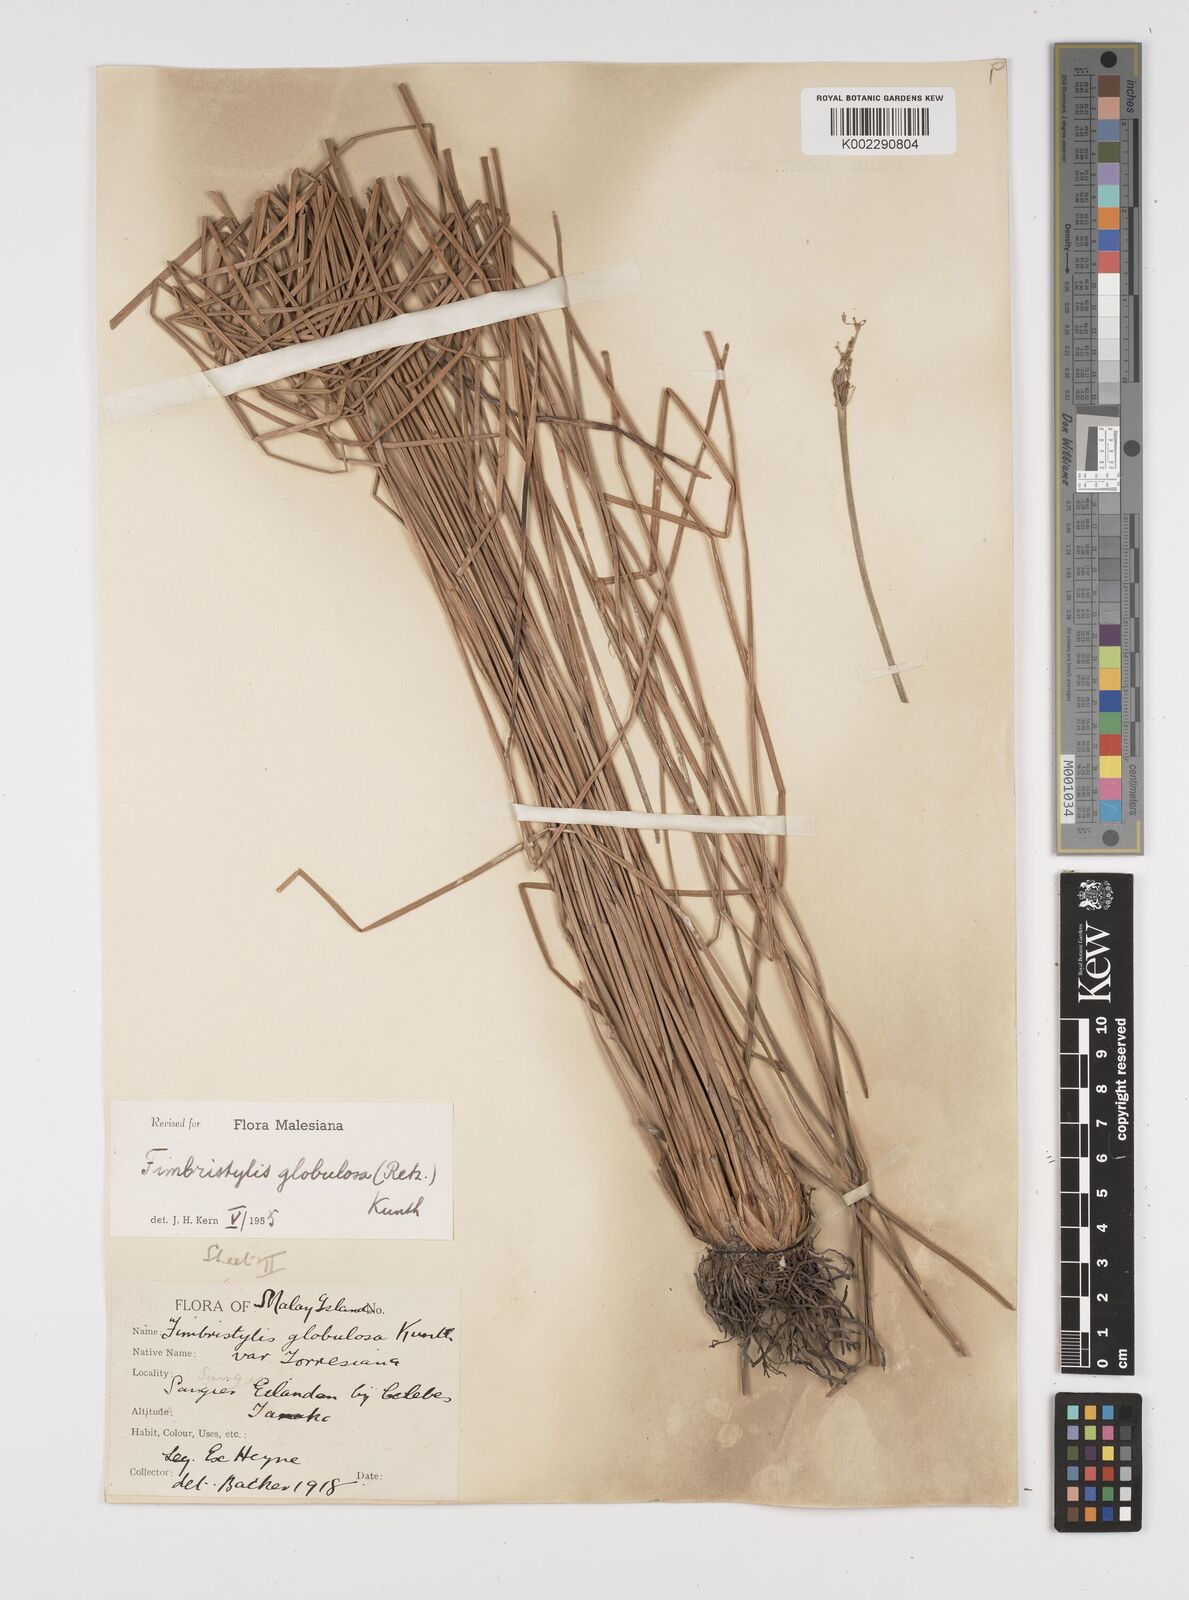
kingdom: Plantae
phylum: Tracheophyta
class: Liliopsida
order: Poales
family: Cyperaceae
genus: Fimbristylis
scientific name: Fimbristylis umbellaris
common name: Globular fimbristylis
